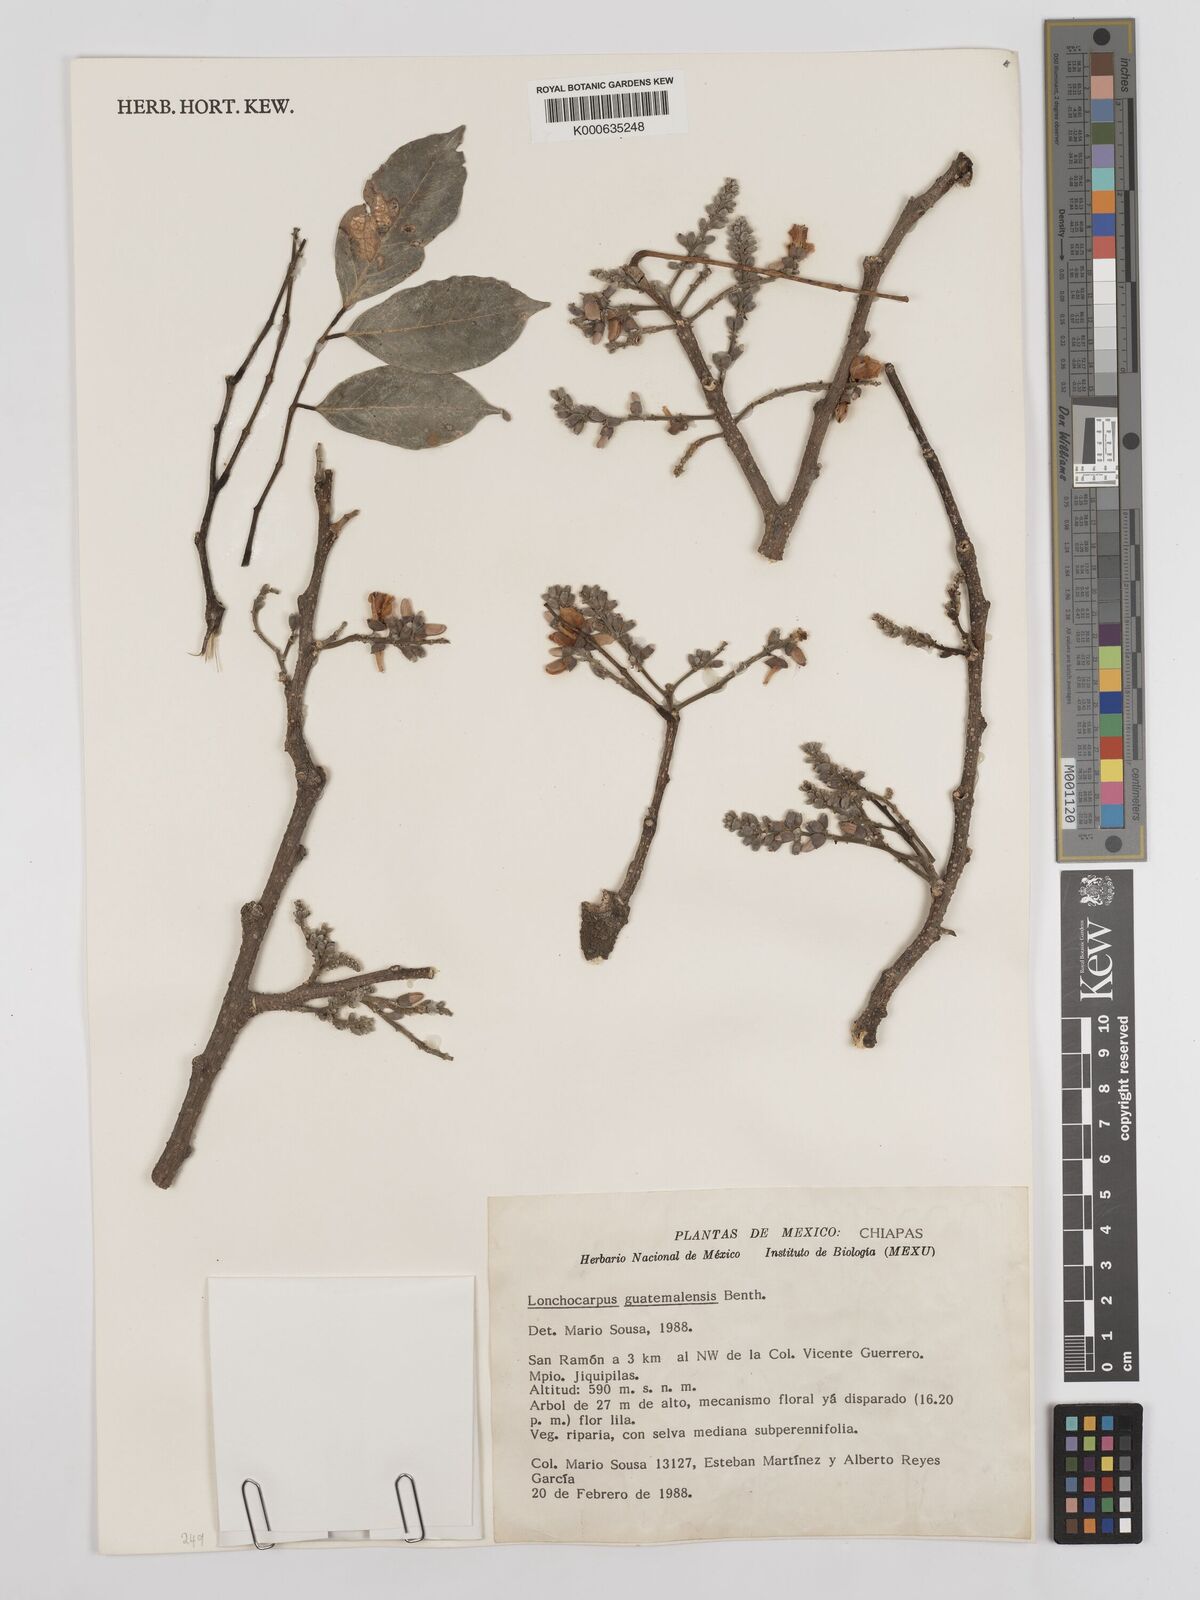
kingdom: Plantae
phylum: Tracheophyta
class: Magnoliopsida
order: Fabales
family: Fabaceae
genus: Lonchocarpus
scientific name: Lonchocarpus guatemalensis
